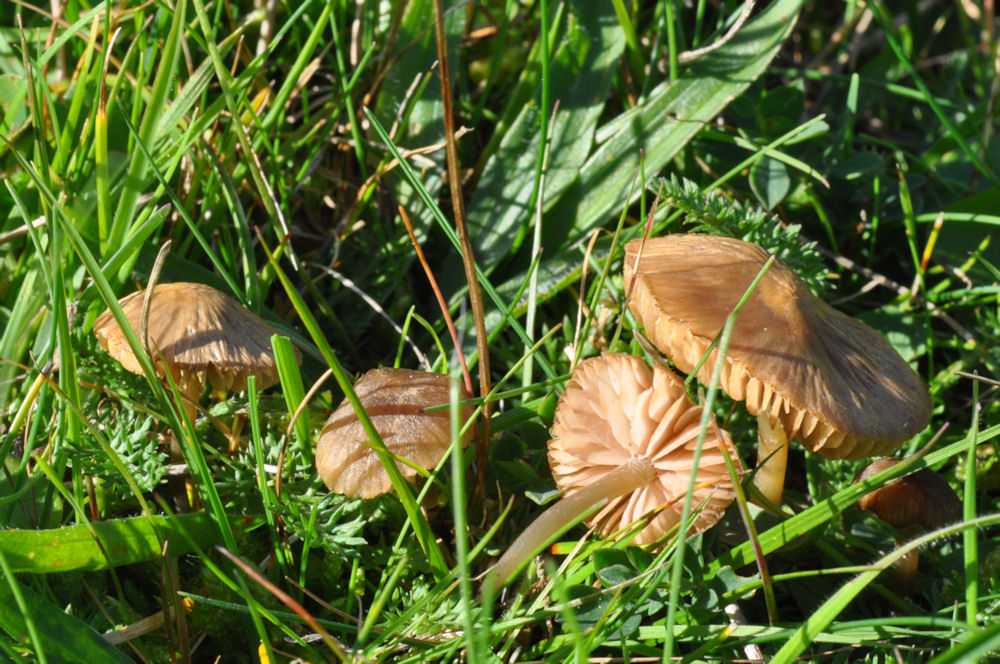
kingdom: Fungi
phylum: Basidiomycota
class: Agaricomycetes
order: Agaricales
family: Entolomataceae
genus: Entoloma
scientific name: Entoloma
